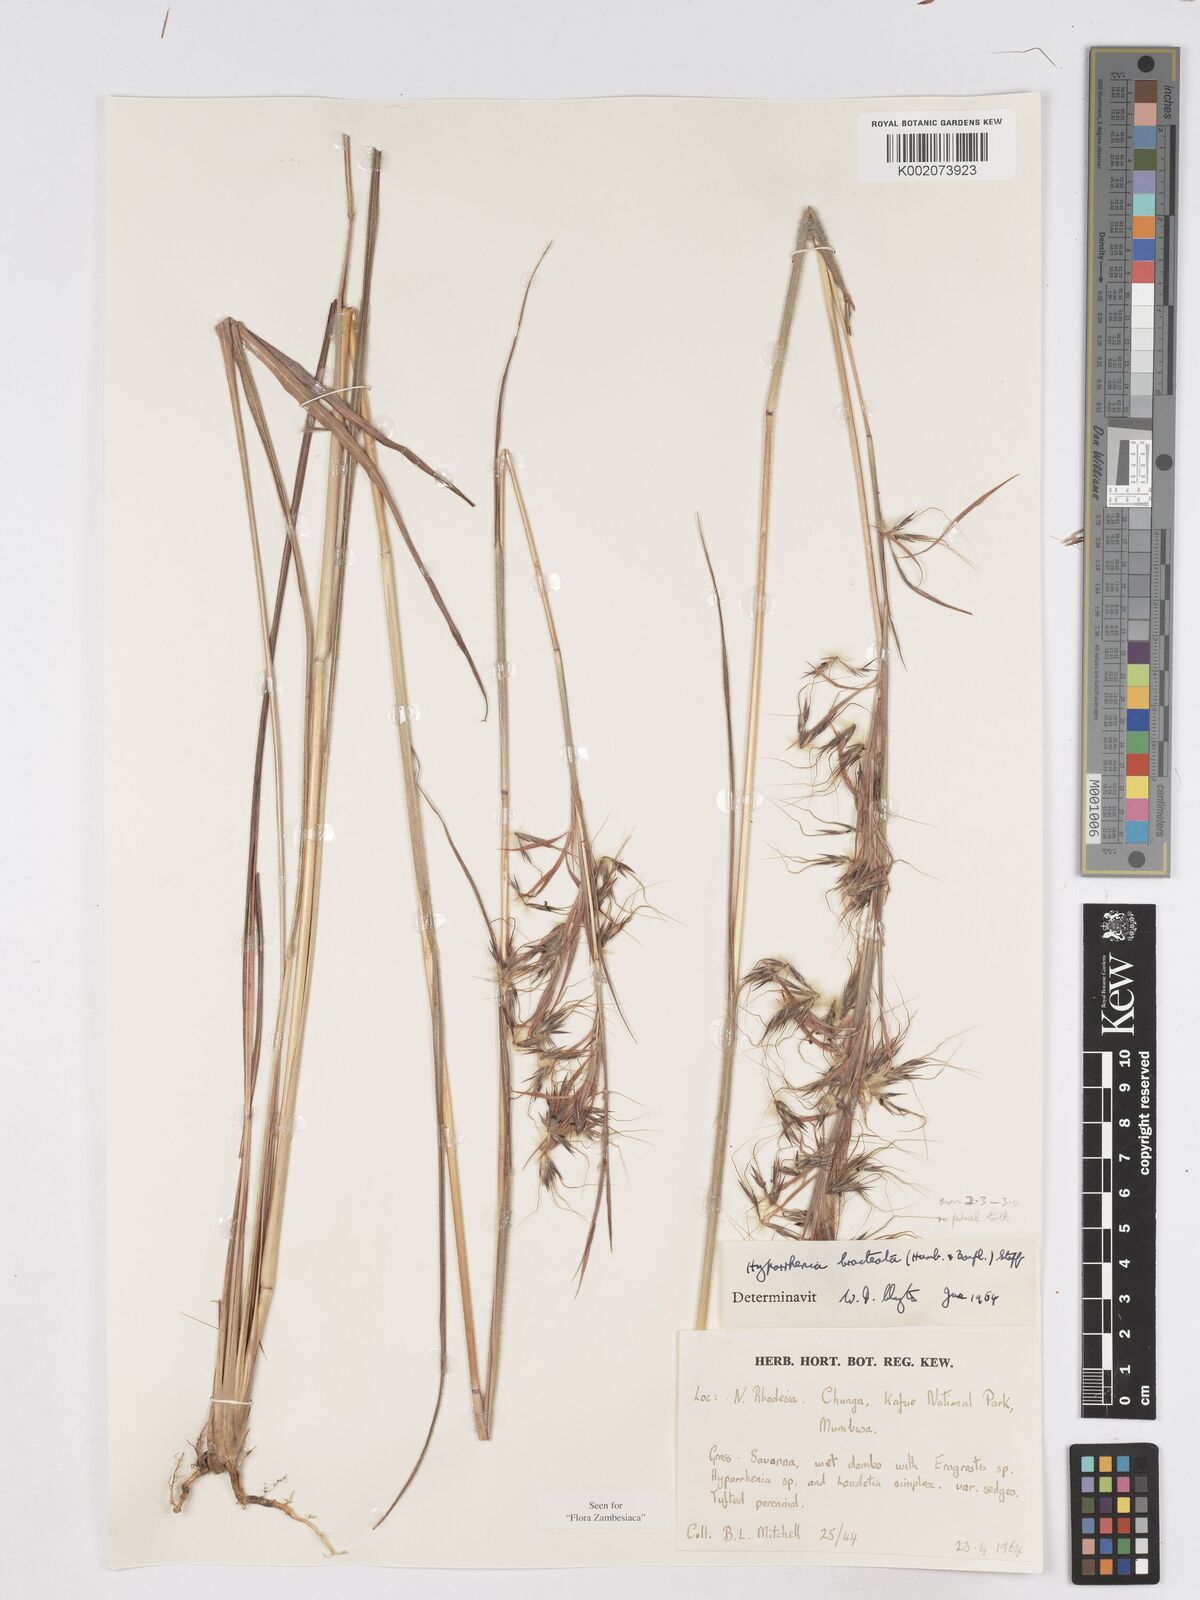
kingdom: Plantae
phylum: Tracheophyta
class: Liliopsida
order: Poales
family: Poaceae
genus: Hyparrhenia
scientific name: Hyparrhenia bracteata
